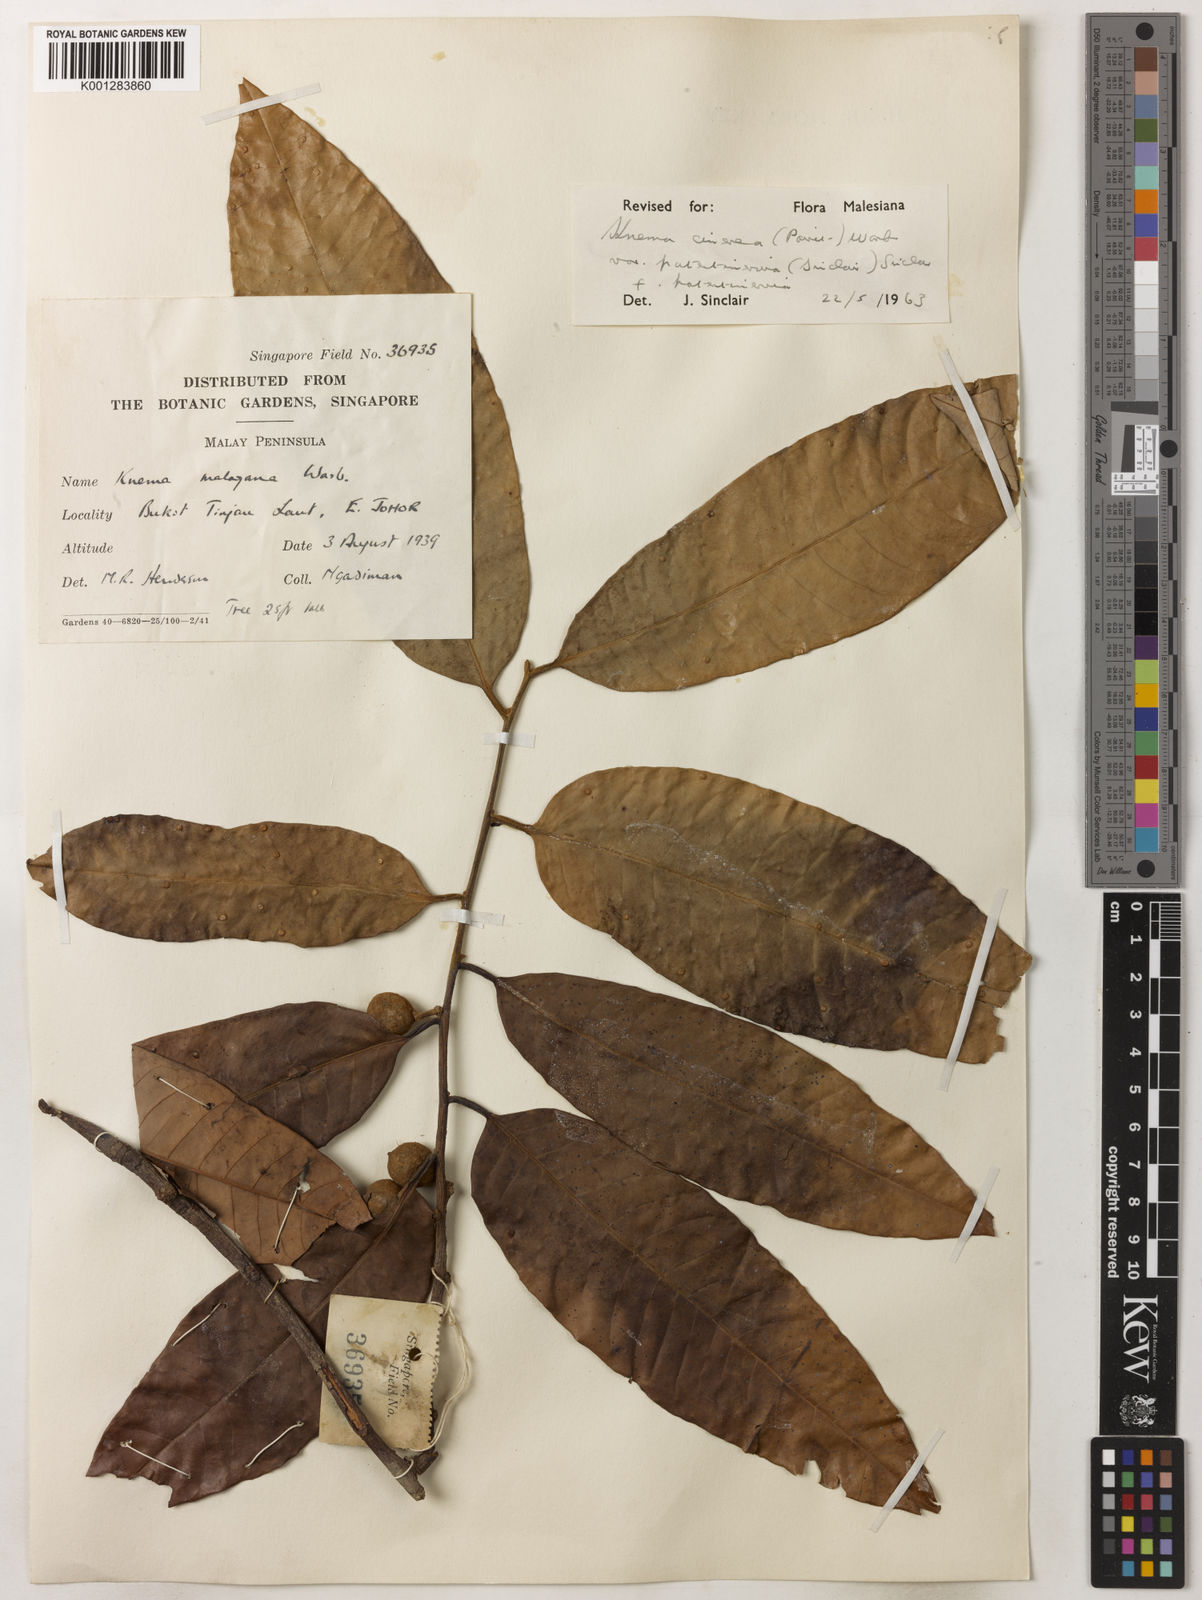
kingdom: Plantae
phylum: Tracheophyta
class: Magnoliopsida
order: Magnoliales
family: Myristicaceae
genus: Knema
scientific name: Knema
